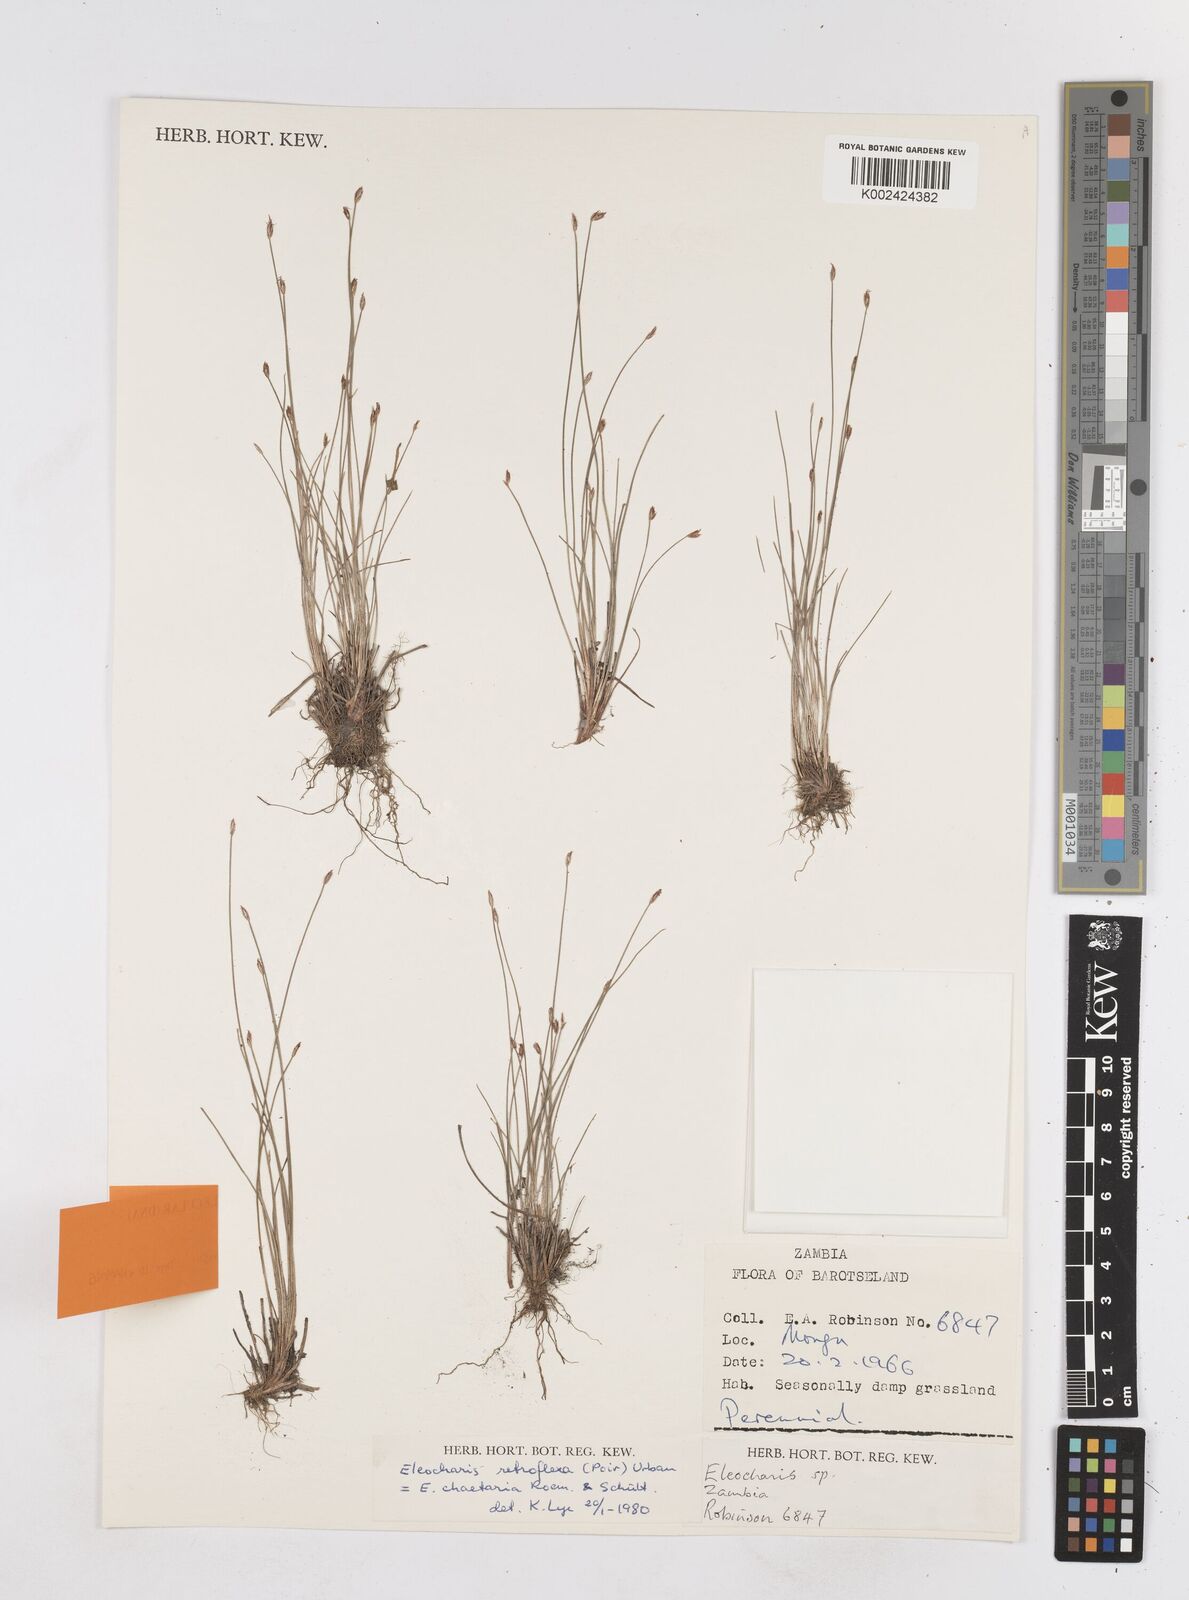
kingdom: Plantae
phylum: Tracheophyta
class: Liliopsida
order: Poales
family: Cyperaceae
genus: Eleocharis
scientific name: Eleocharis retroflexa
